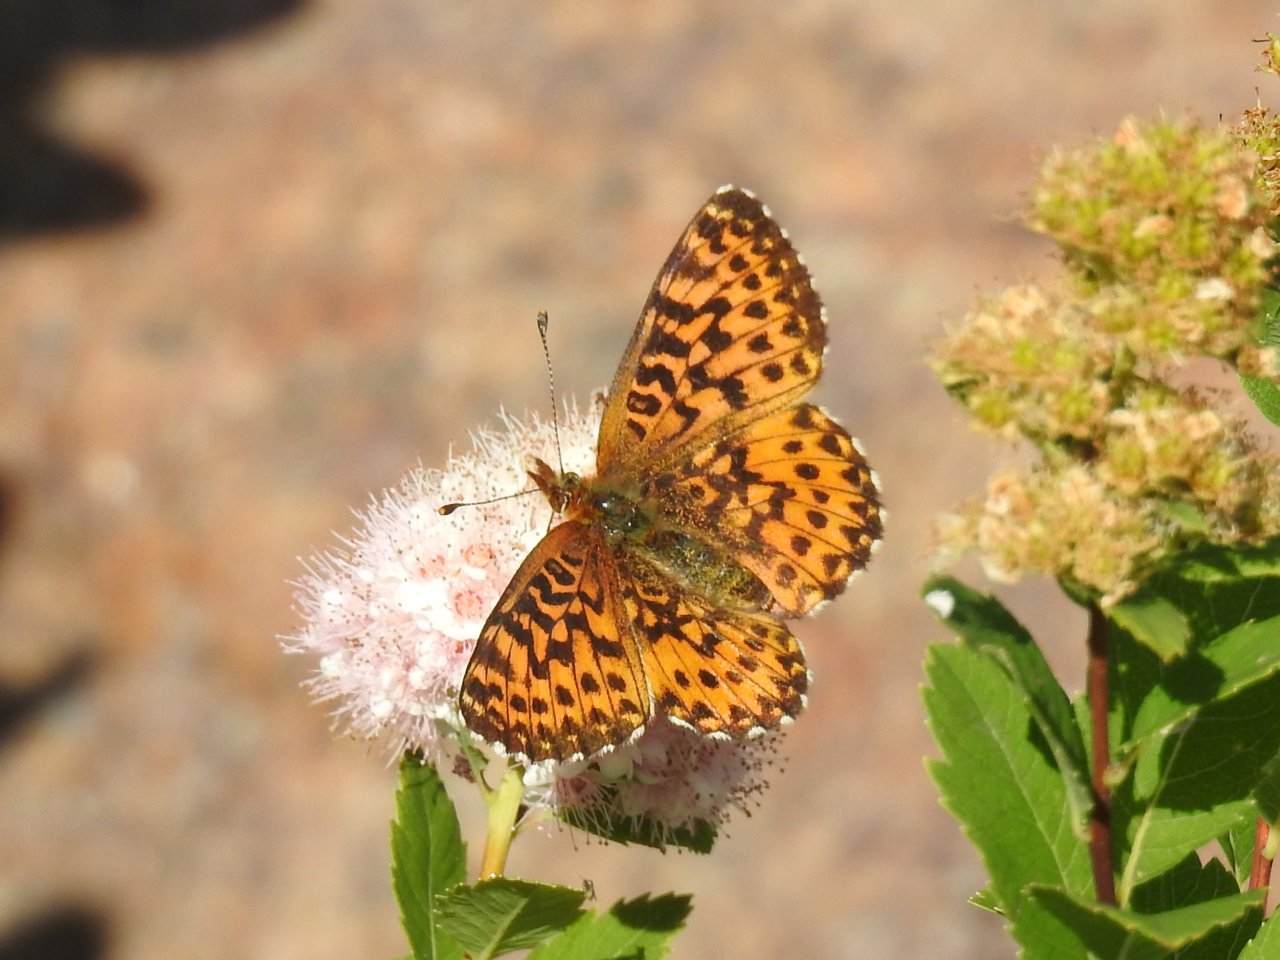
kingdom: Animalia
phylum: Arthropoda
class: Insecta
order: Lepidoptera
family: Nymphalidae
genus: Boloria
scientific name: Boloria
